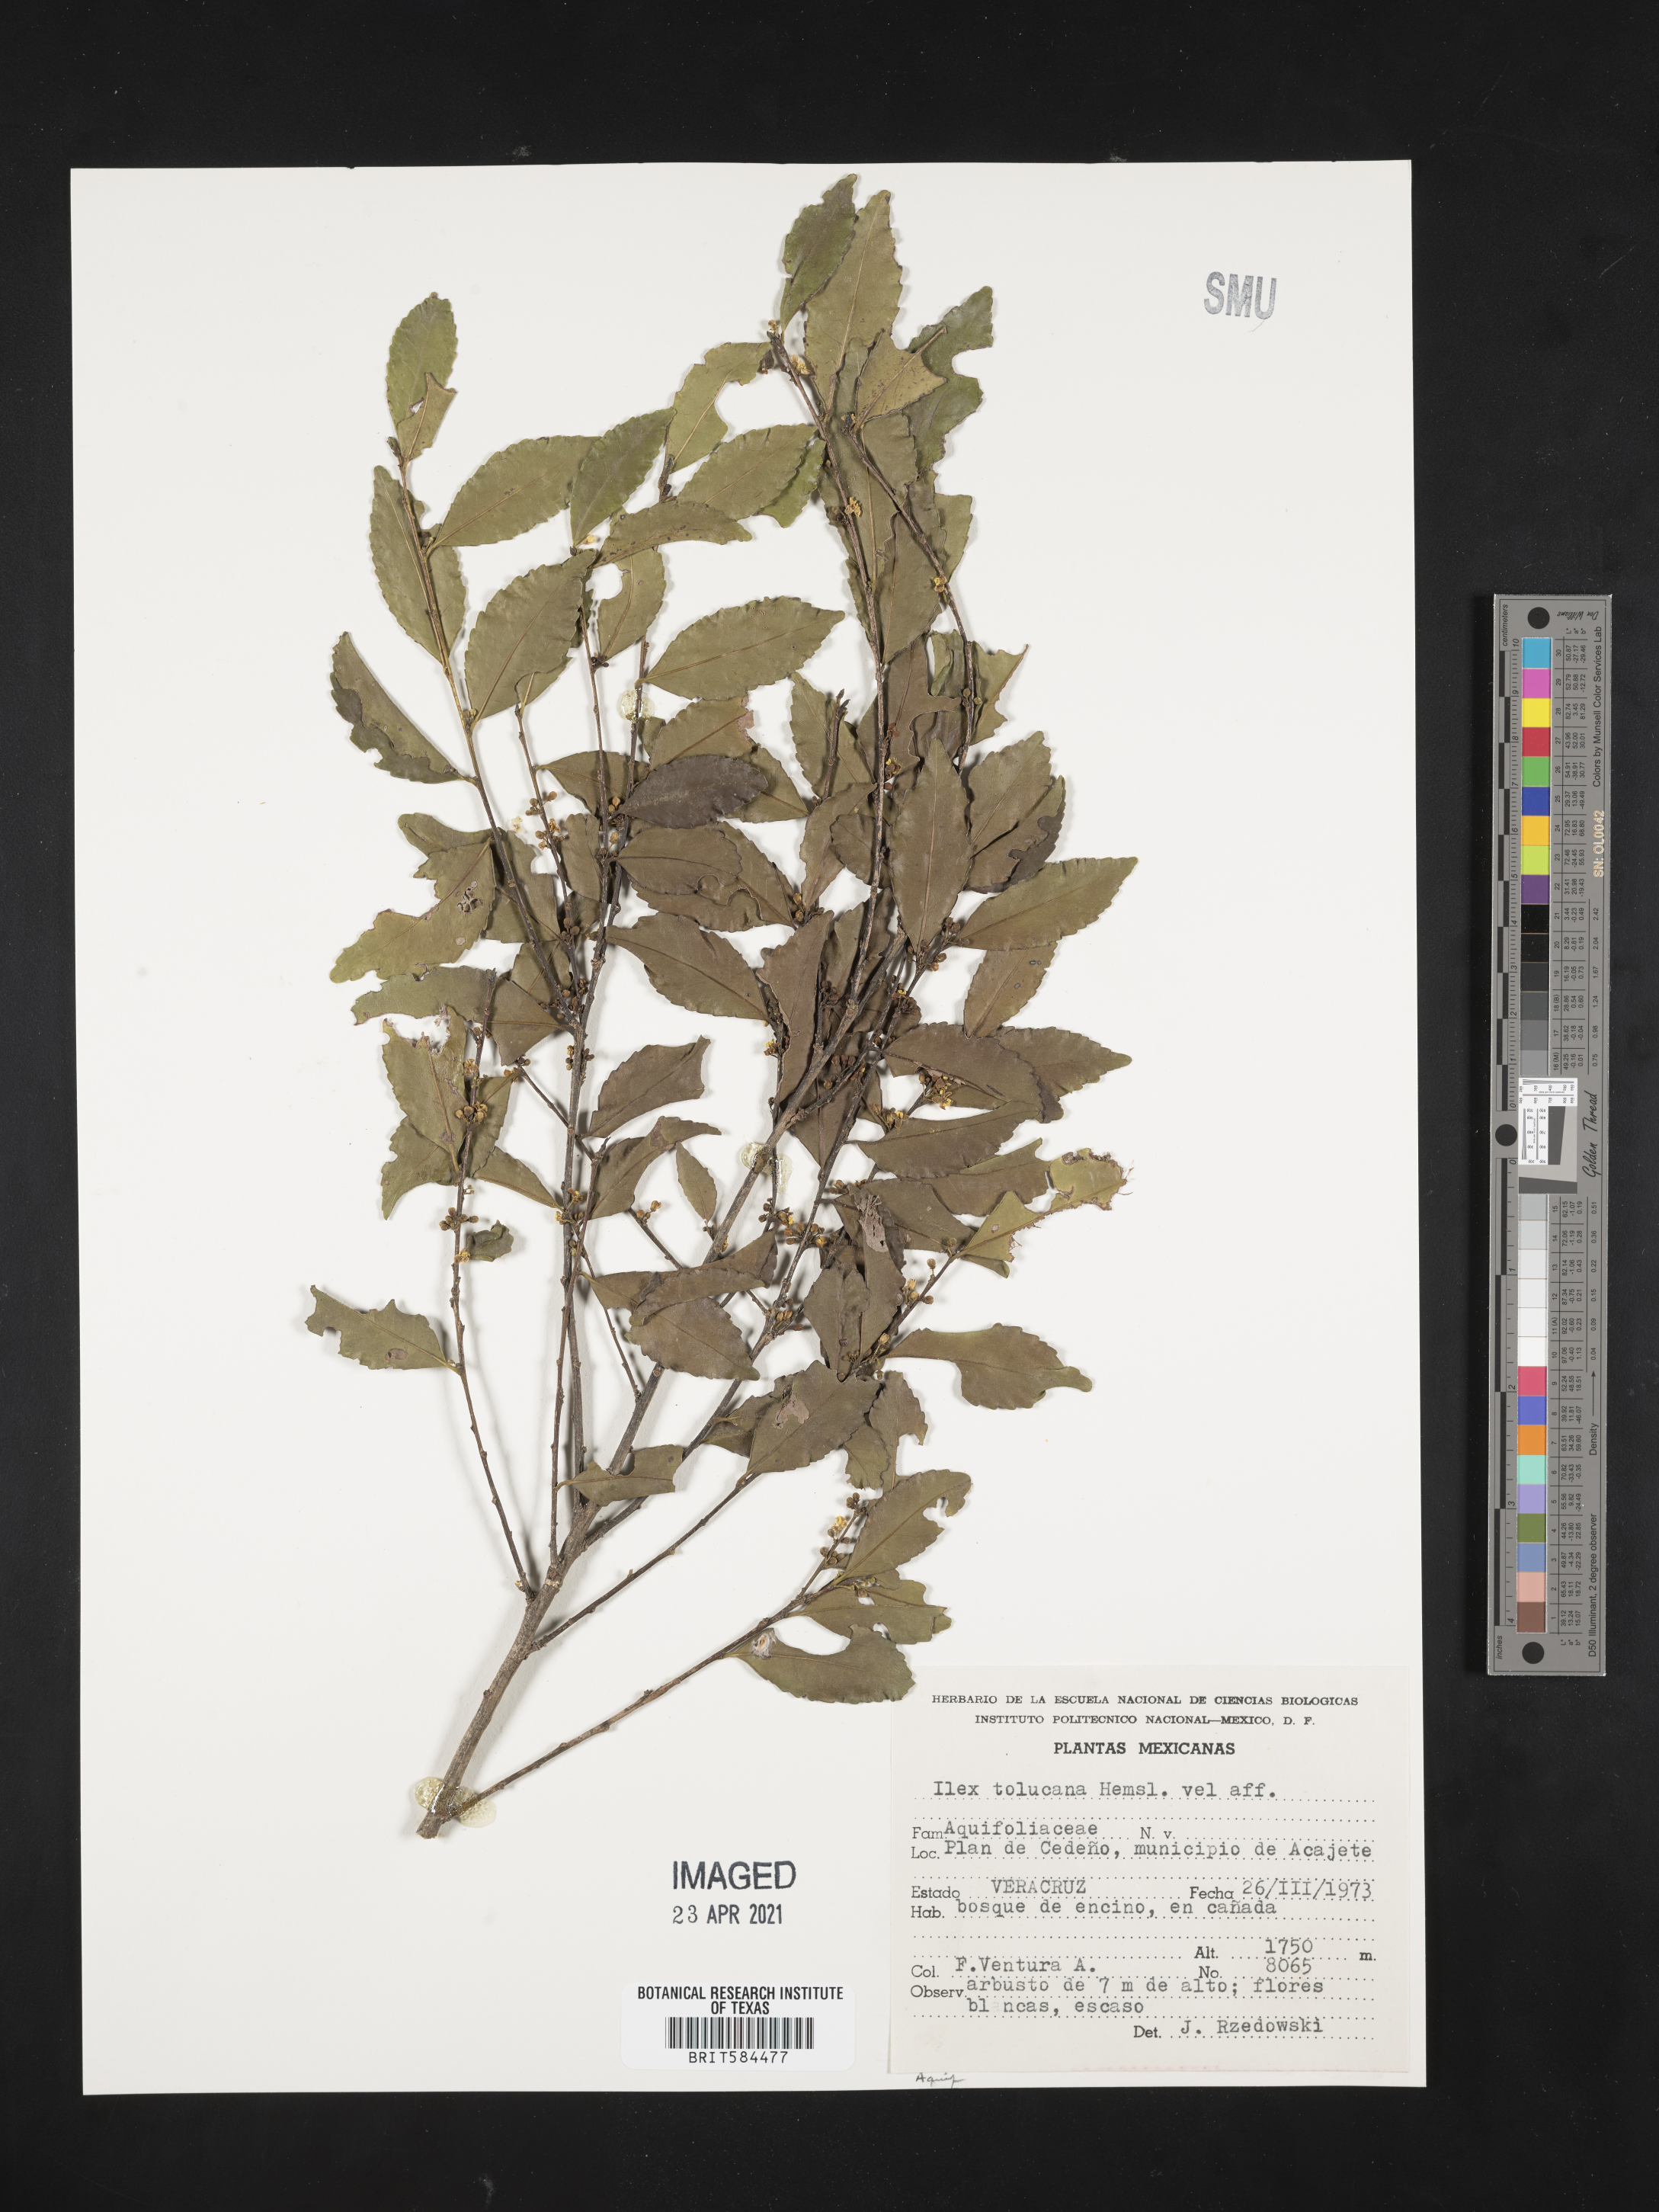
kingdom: Plantae
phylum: Tracheophyta
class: Magnoliopsida
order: Aquifoliales
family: Aquifoliaceae
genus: Ilex
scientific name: Ilex discolor
